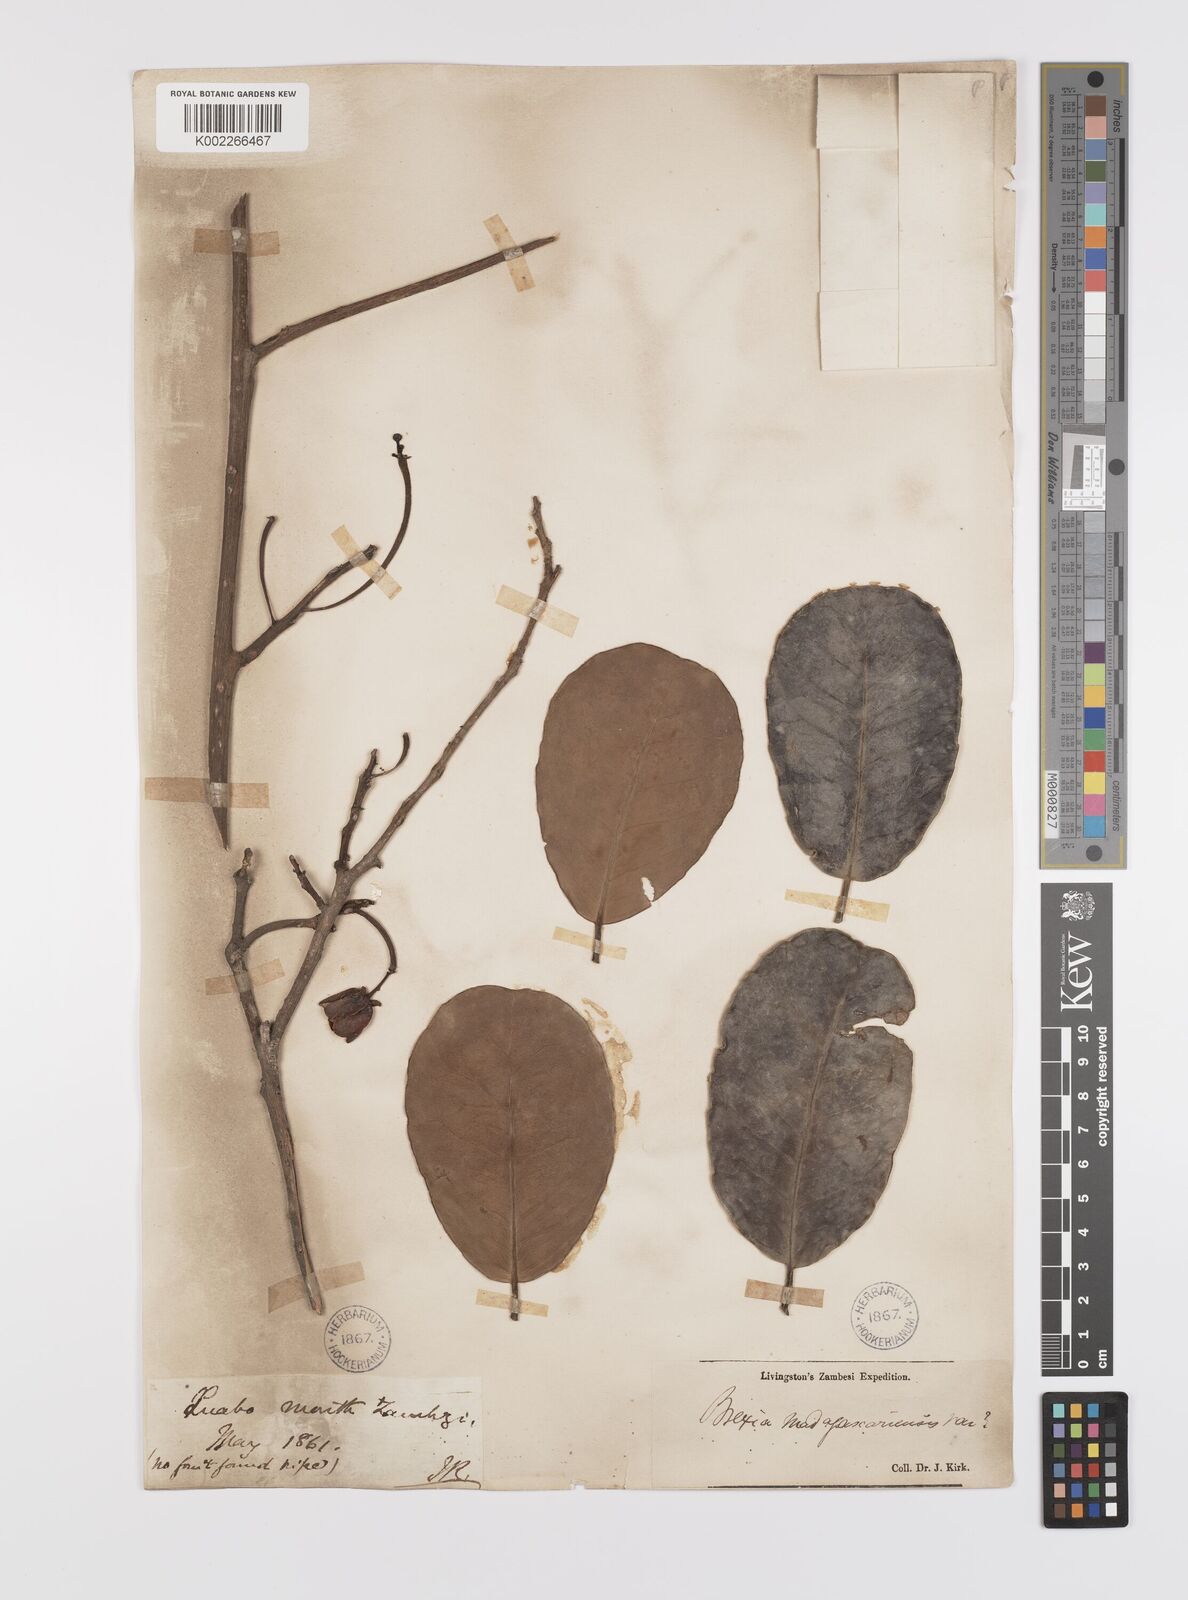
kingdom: Plantae
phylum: Tracheophyta
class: Magnoliopsida
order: Celastrales
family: Celastraceae
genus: Brexia
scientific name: Brexia madagascariensis
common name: Brexia
